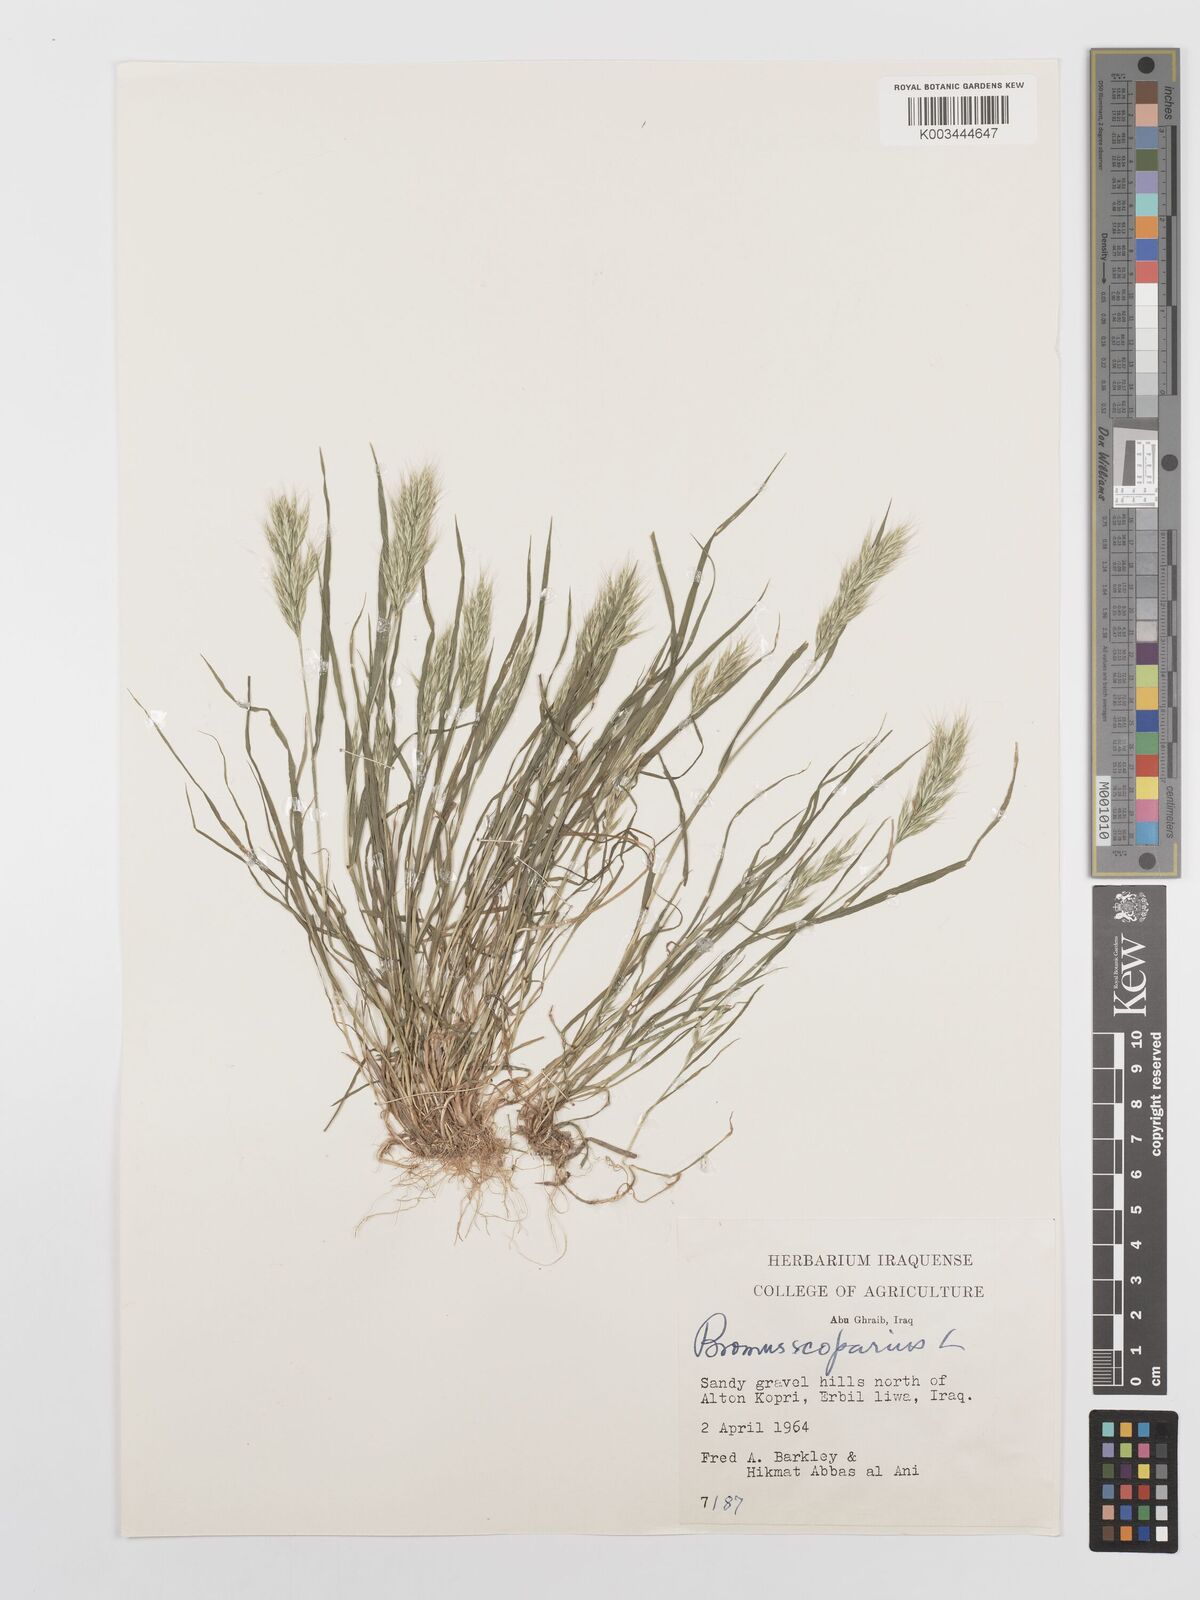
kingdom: Plantae
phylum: Tracheophyta
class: Liliopsida
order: Poales
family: Poaceae
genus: Bromus
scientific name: Bromus scoparius
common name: Broom brome
